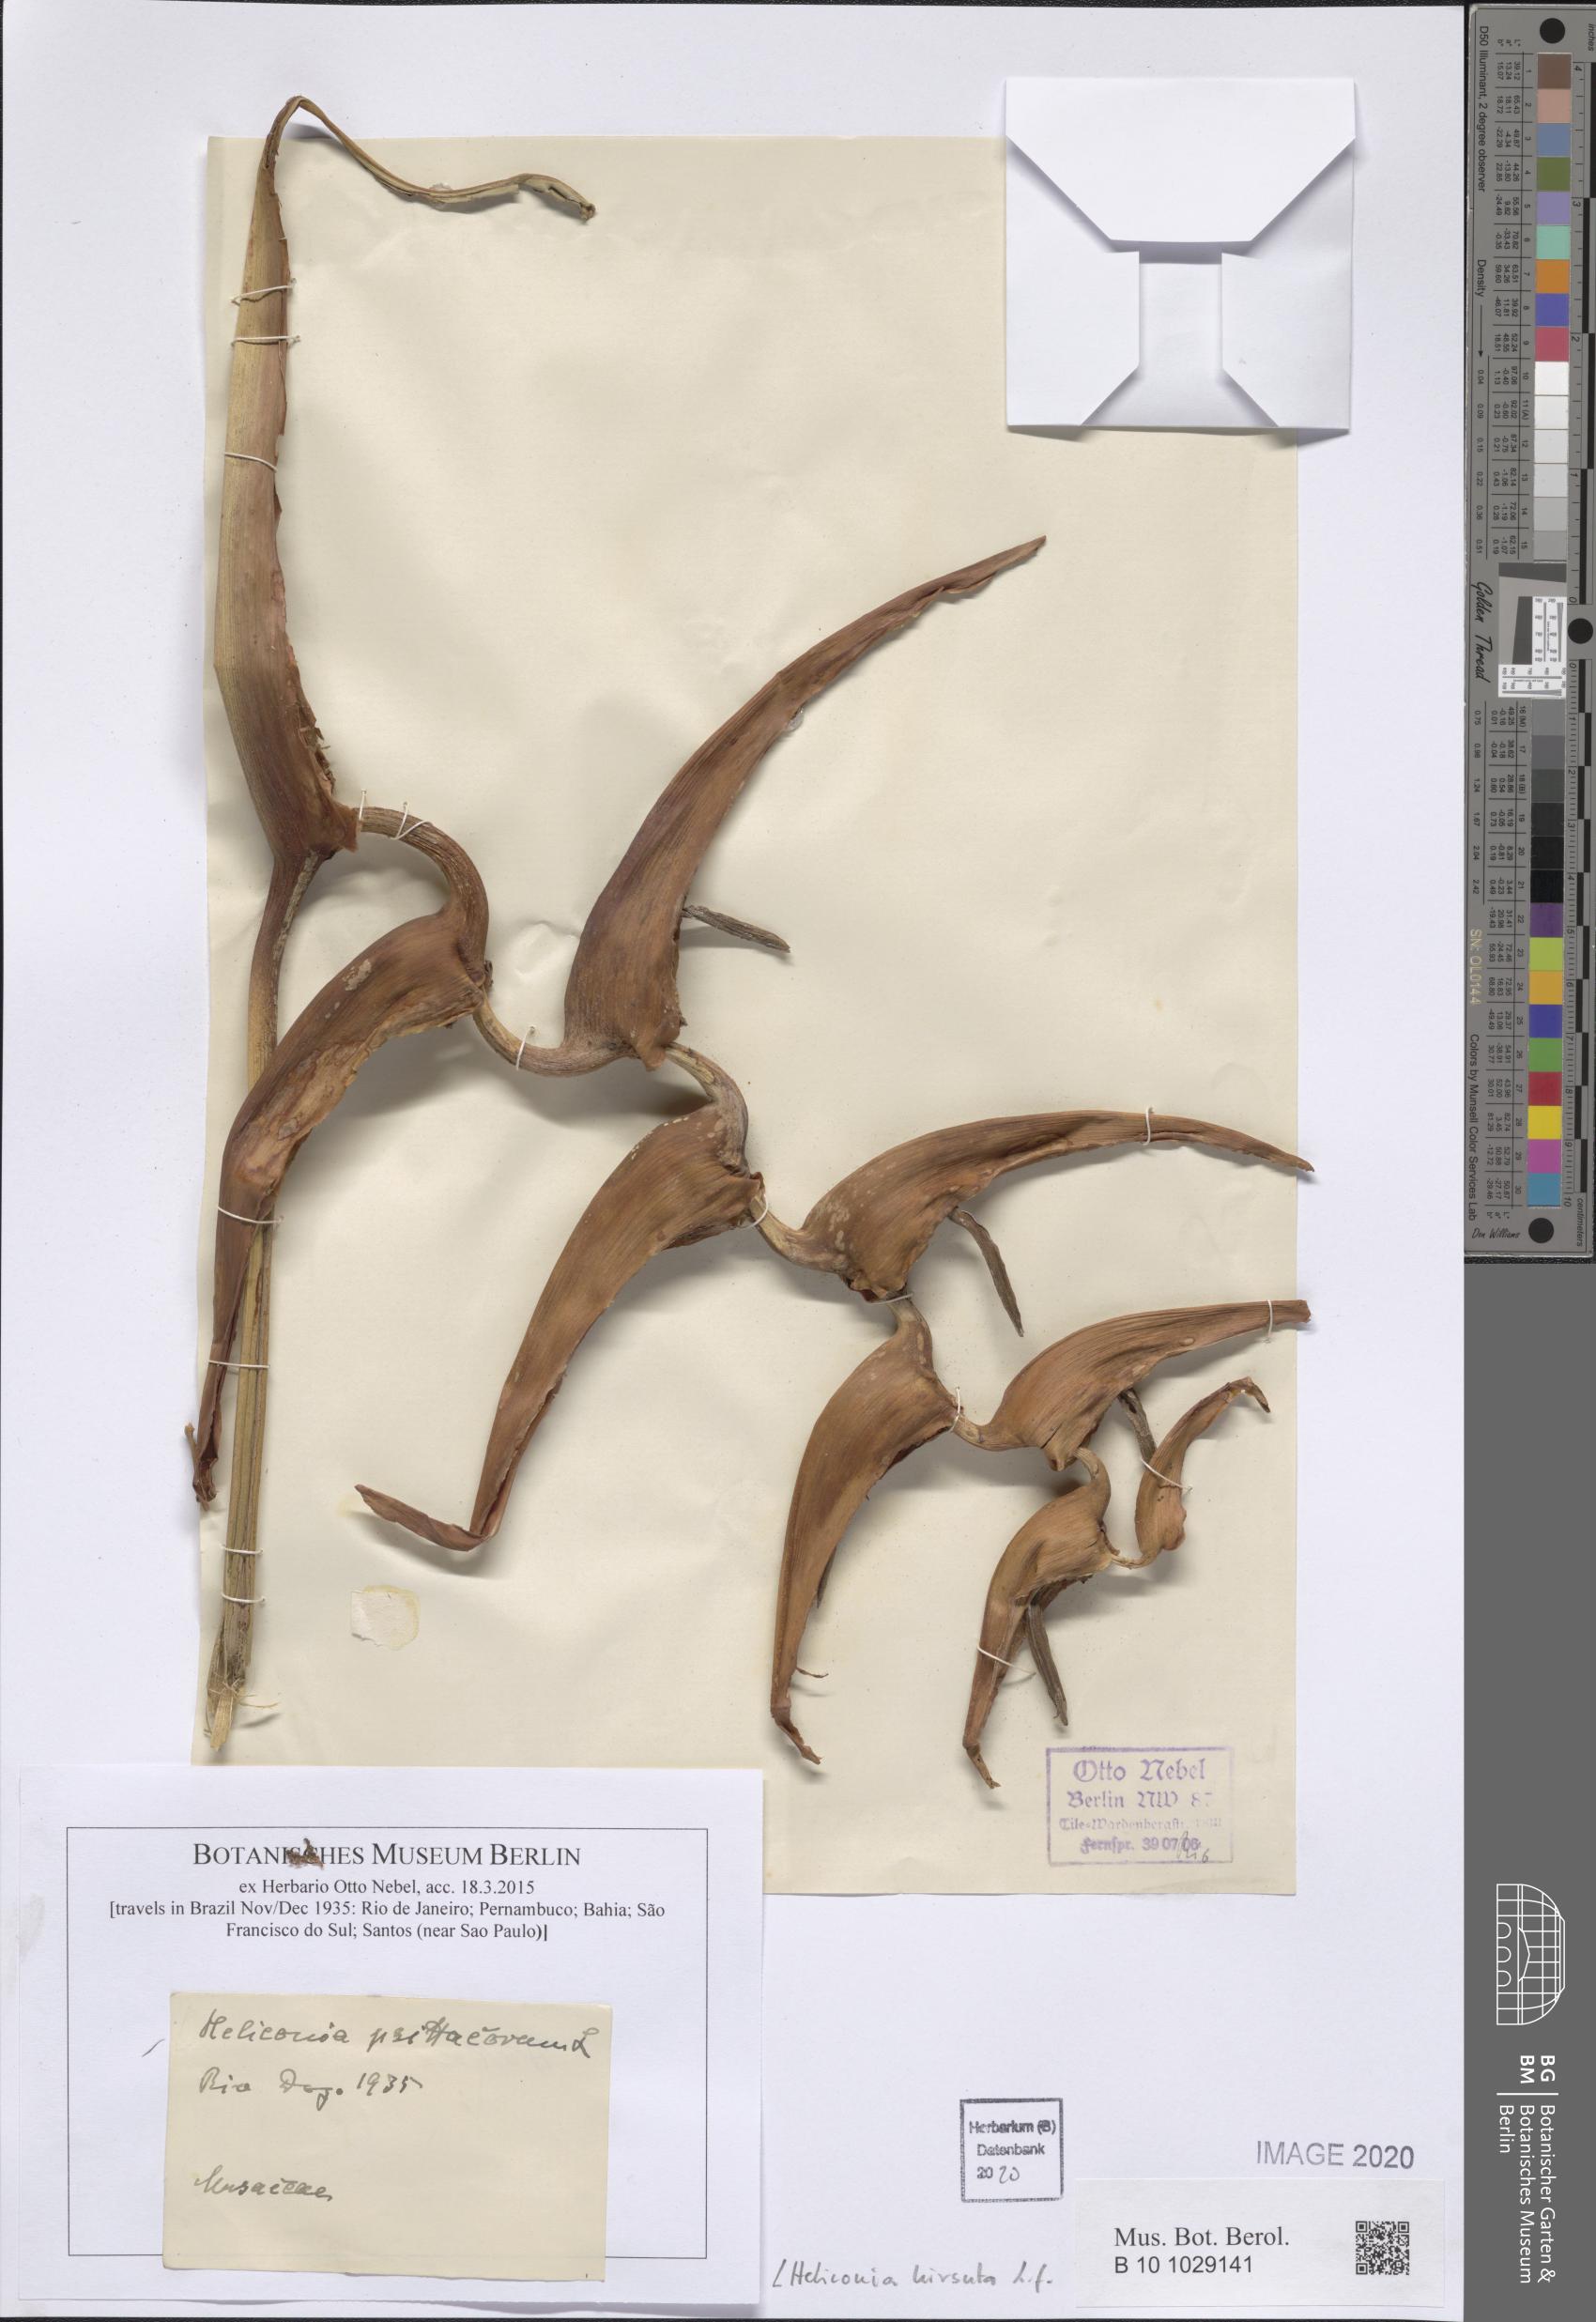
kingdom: Plantae
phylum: Tracheophyta
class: Liliopsida
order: Zingiberales
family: Heliconiaceae
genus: Heliconia
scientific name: Heliconia hirsuta
